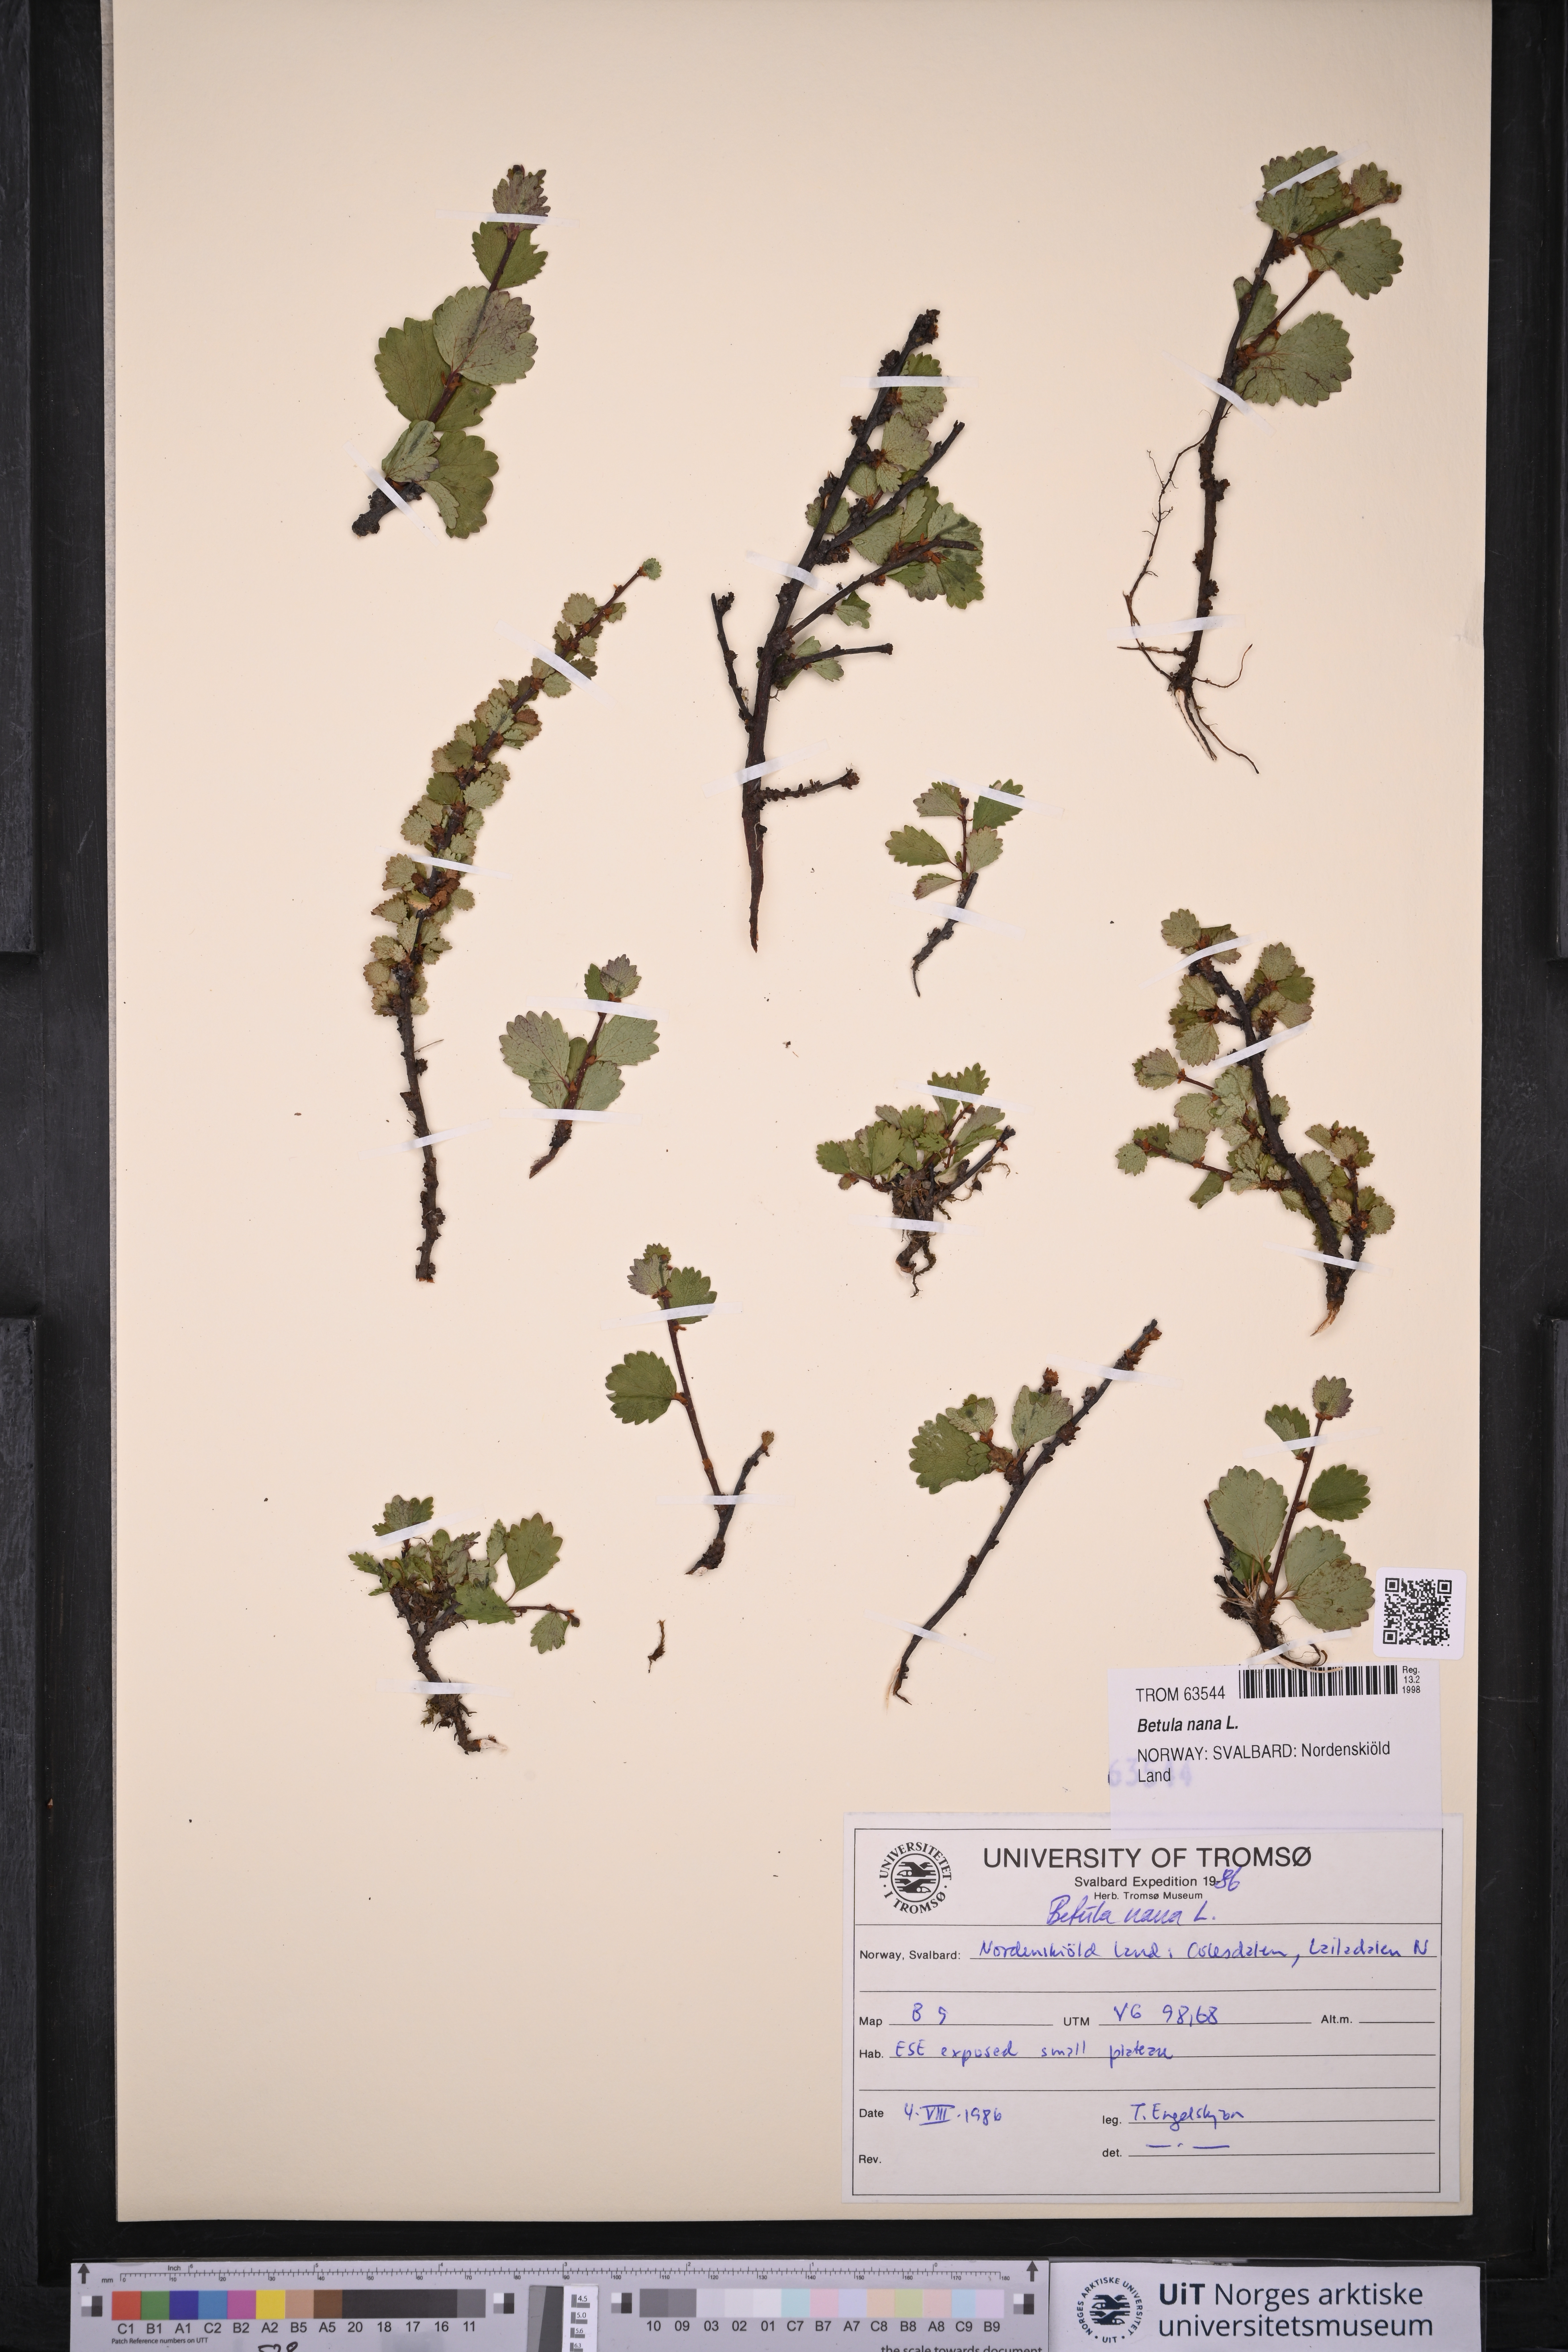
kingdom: Plantae
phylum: Tracheophyta
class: Magnoliopsida
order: Fagales
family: Betulaceae
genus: Betula
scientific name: Betula nana
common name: Arctic dwarf birch
